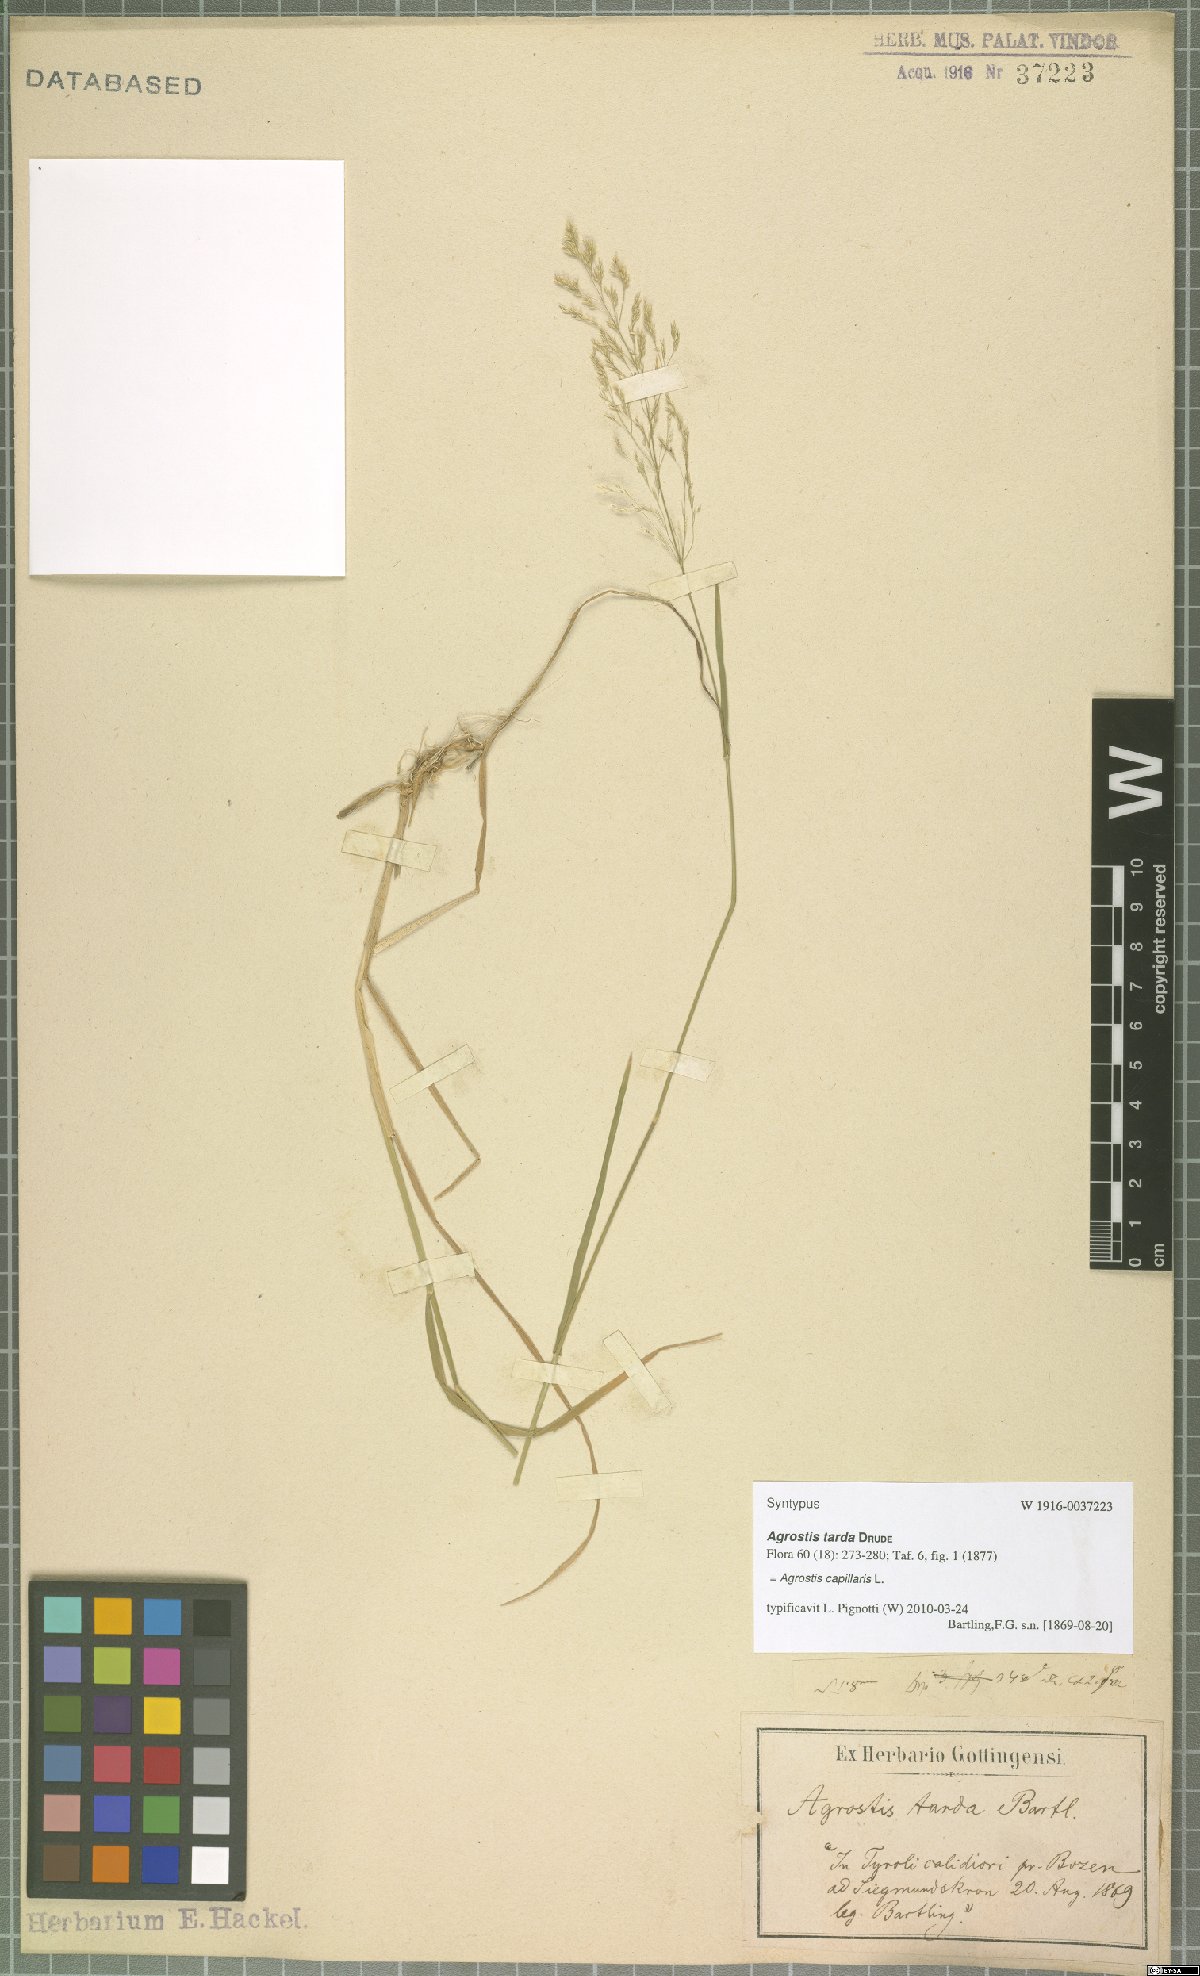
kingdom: Plantae
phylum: Tracheophyta
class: Liliopsida
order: Poales
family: Poaceae
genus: Agrostis
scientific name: Agrostis capillaris
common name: Colonial bentgrass
